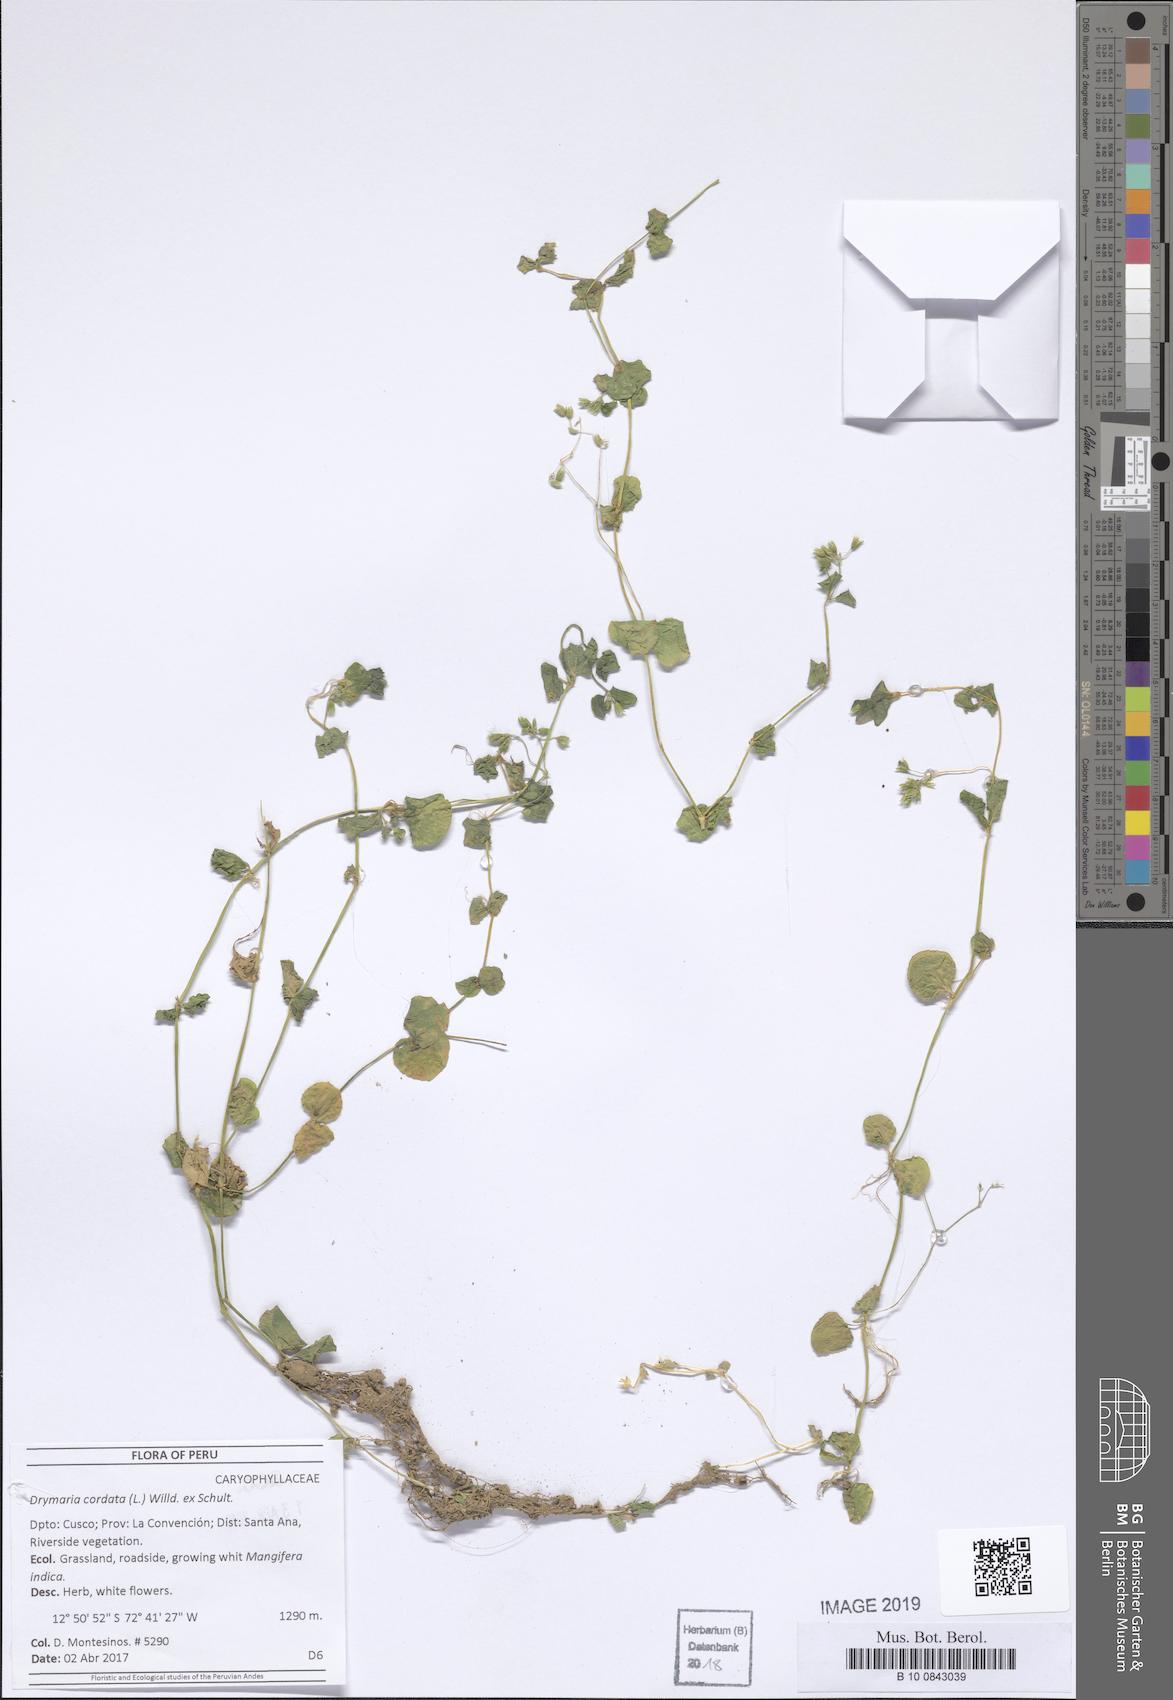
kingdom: Plantae
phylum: Tracheophyta
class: Magnoliopsida
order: Caryophyllales
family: Caryophyllaceae
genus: Drymaria
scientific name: Drymaria cordata
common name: Whitesnow
